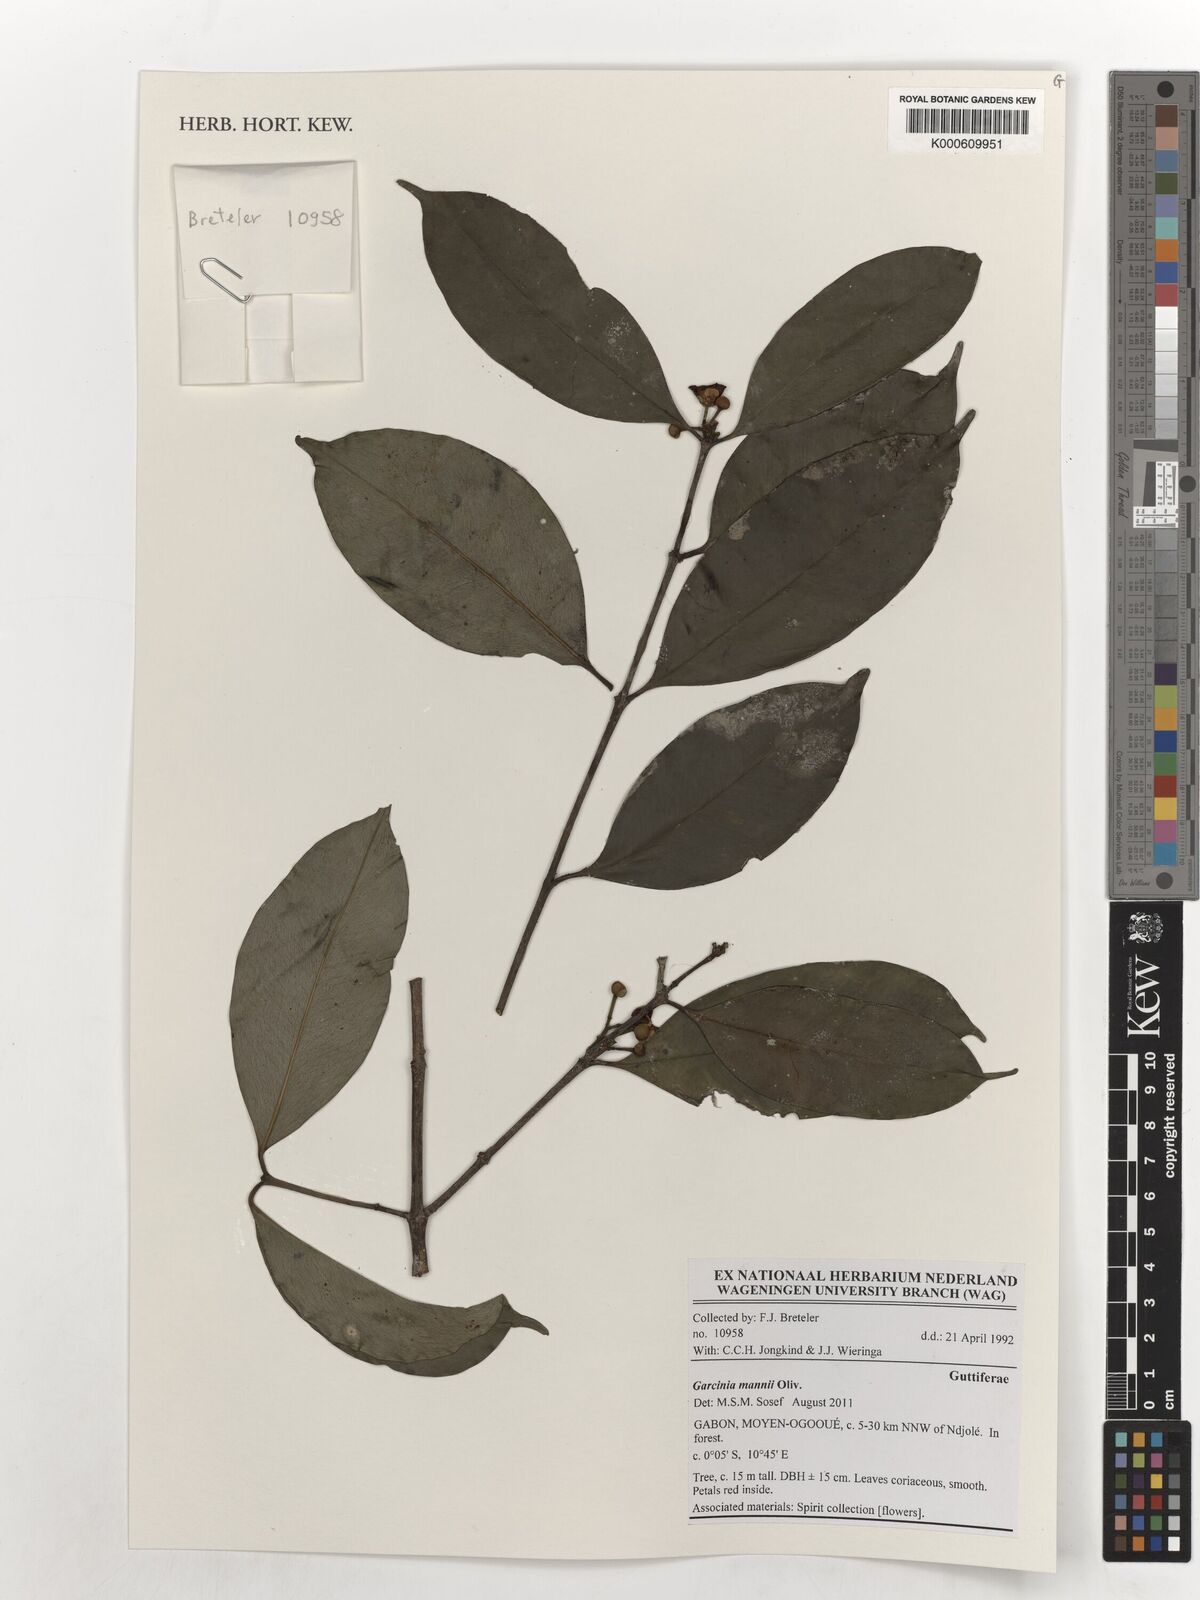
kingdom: Plantae
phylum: Tracheophyta
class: Magnoliopsida
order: Malpighiales
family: Clusiaceae
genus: Garcinia
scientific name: Garcinia mannii
